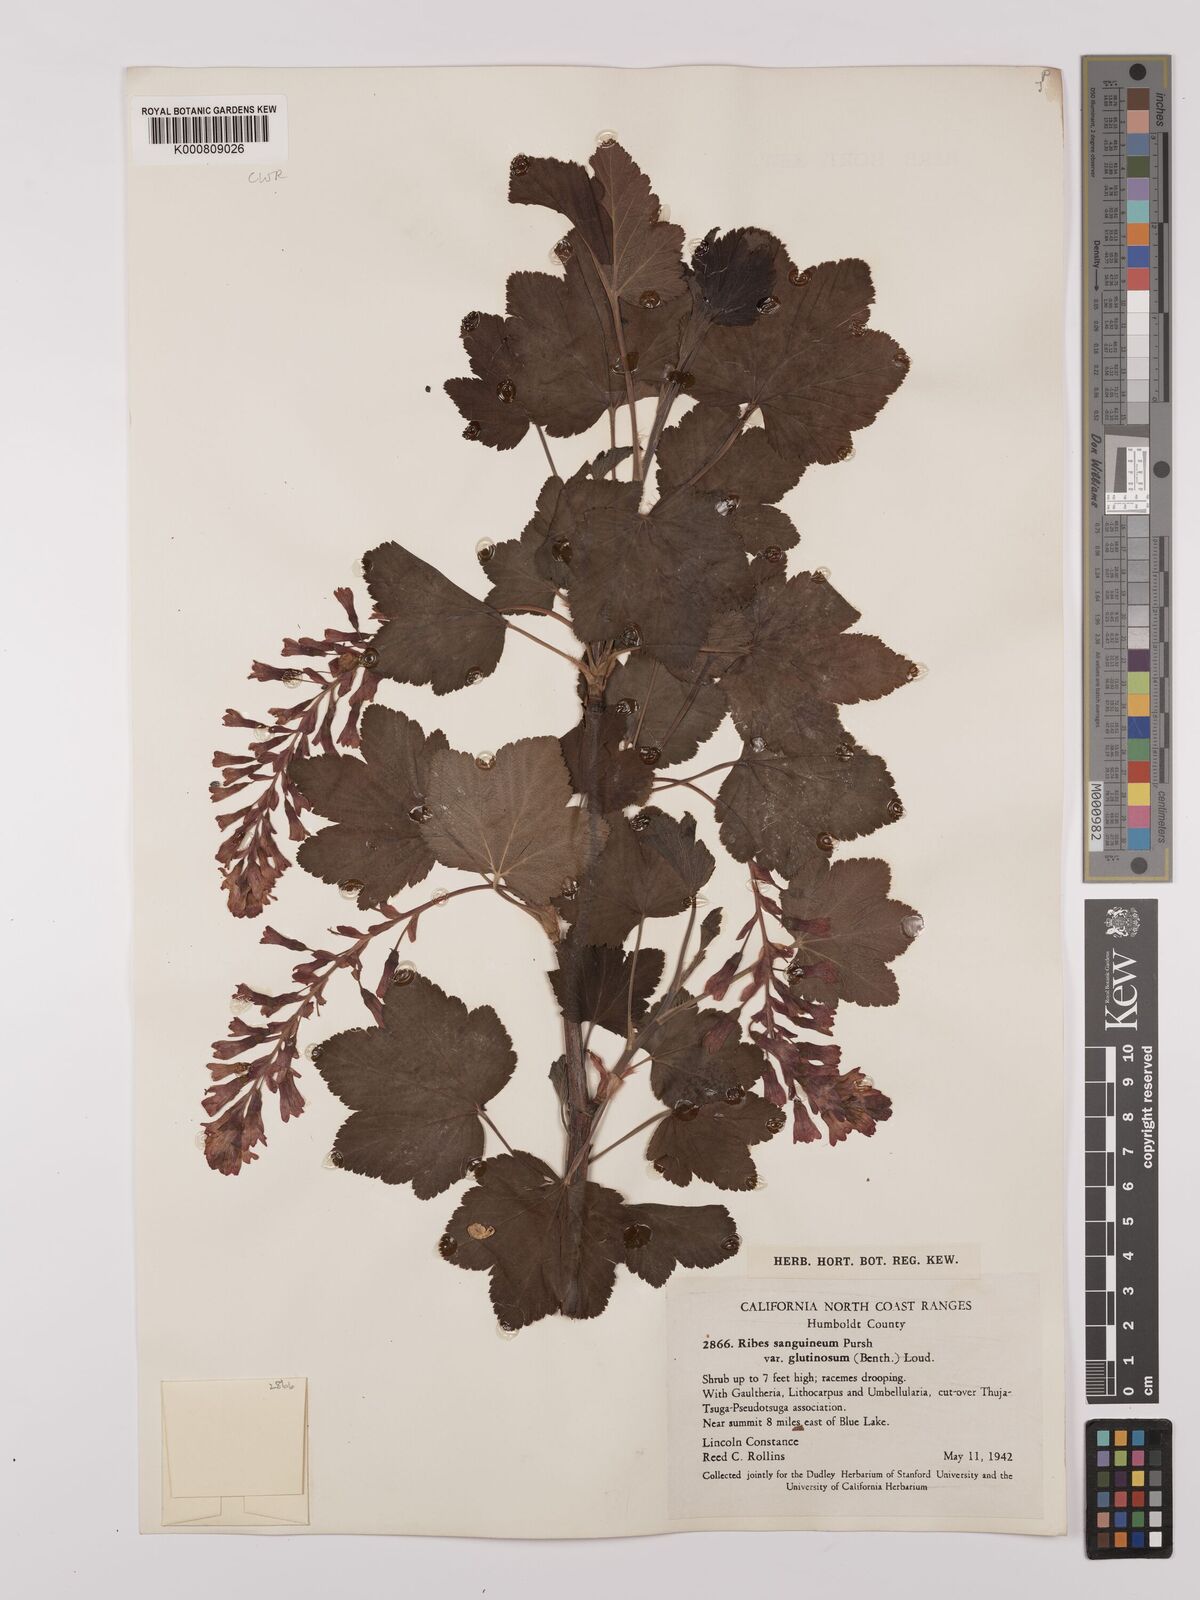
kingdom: Plantae
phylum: Tracheophyta
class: Magnoliopsida
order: Saxifragales
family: Grossulariaceae
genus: Ribes
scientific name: Ribes sanguineum
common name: Flowering currant
